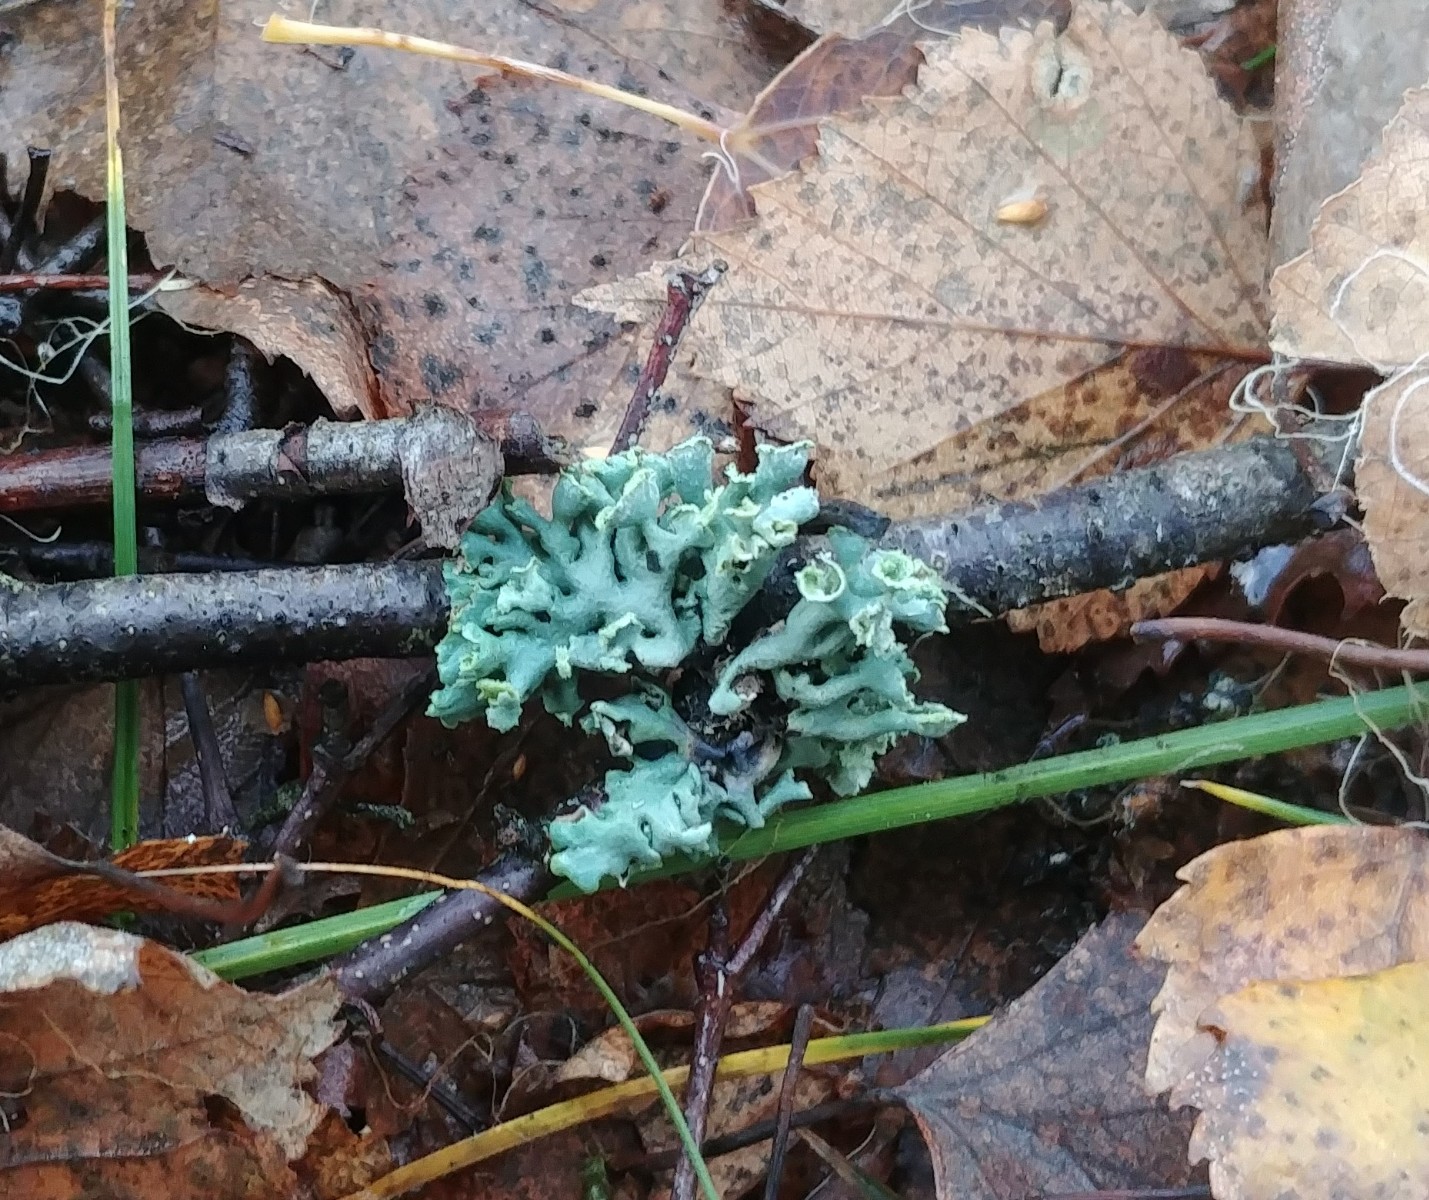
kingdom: Fungi
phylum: Ascomycota
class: Lecanoromycetes
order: Lecanorales
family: Parmeliaceae
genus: Hypogymnia
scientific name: Hypogymnia physodes
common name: almindelig kvistlav
